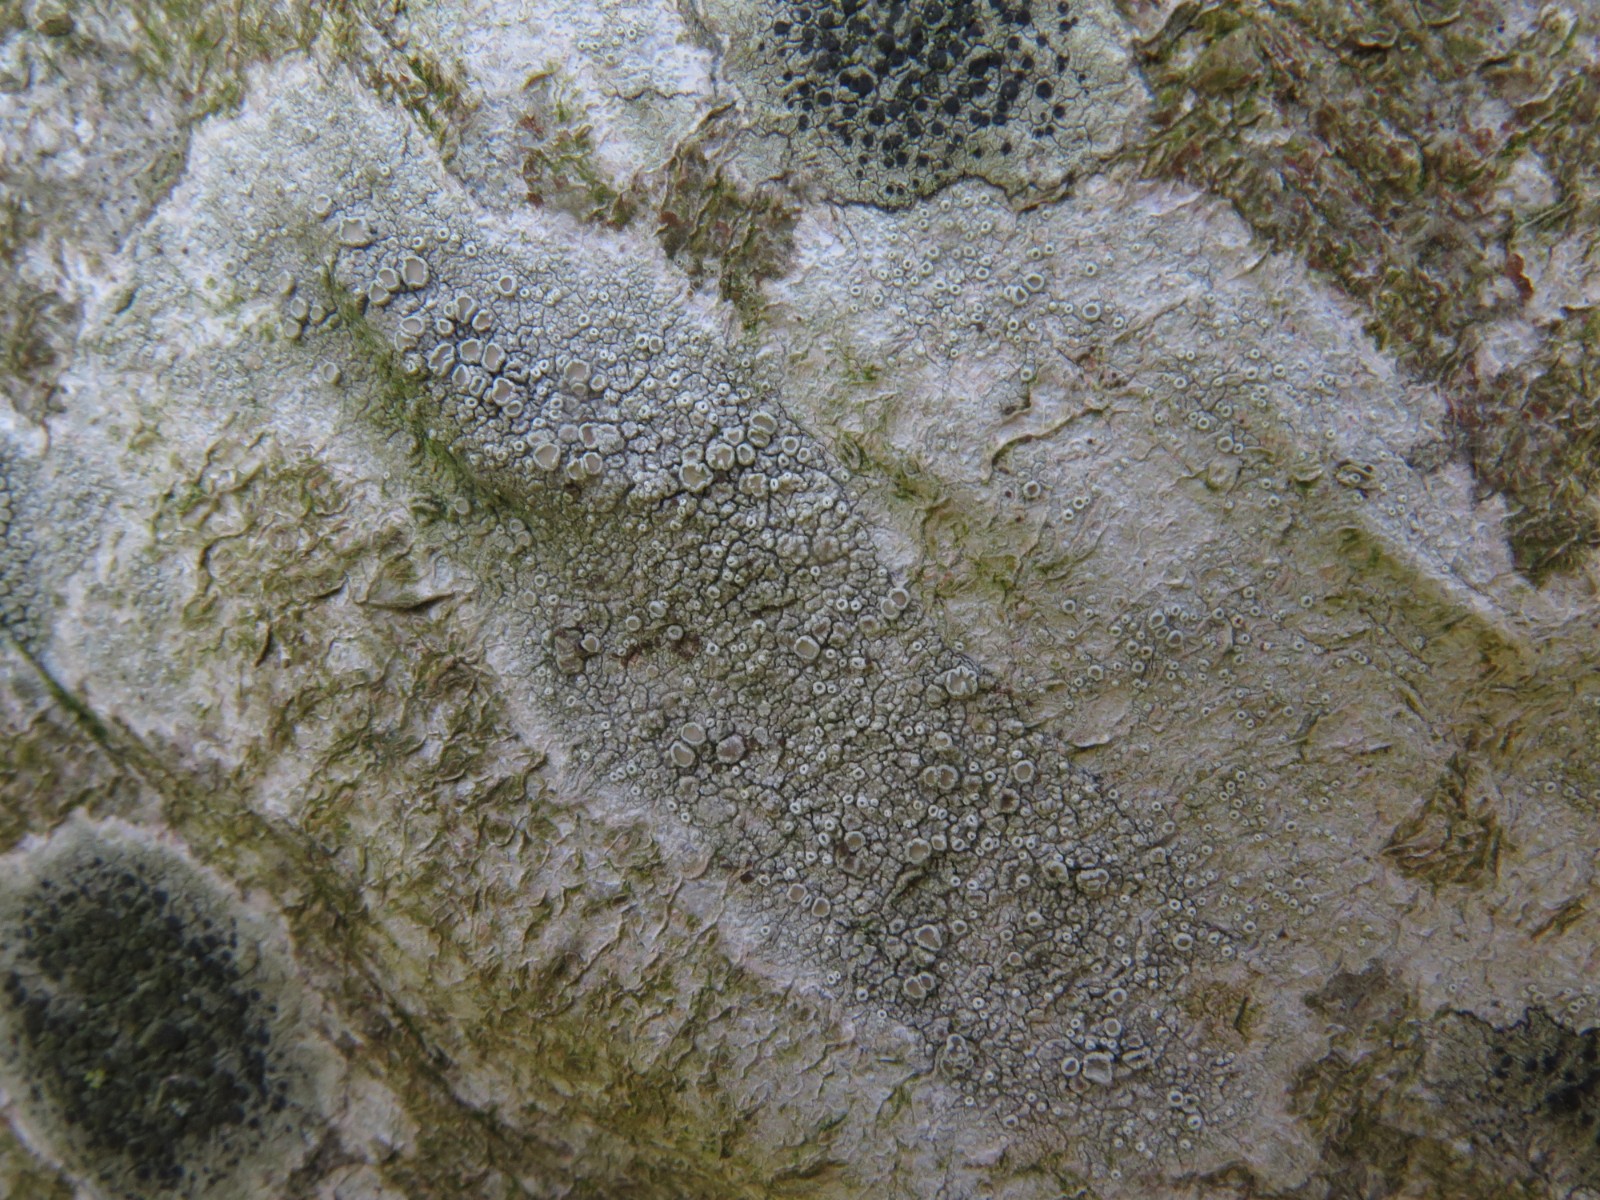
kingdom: Fungi
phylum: Ascomycota
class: Lecanoromycetes
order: Lecanorales
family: Lecanoraceae
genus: Lecanora
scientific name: Lecanora chlarotera
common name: brun kantskivelav
